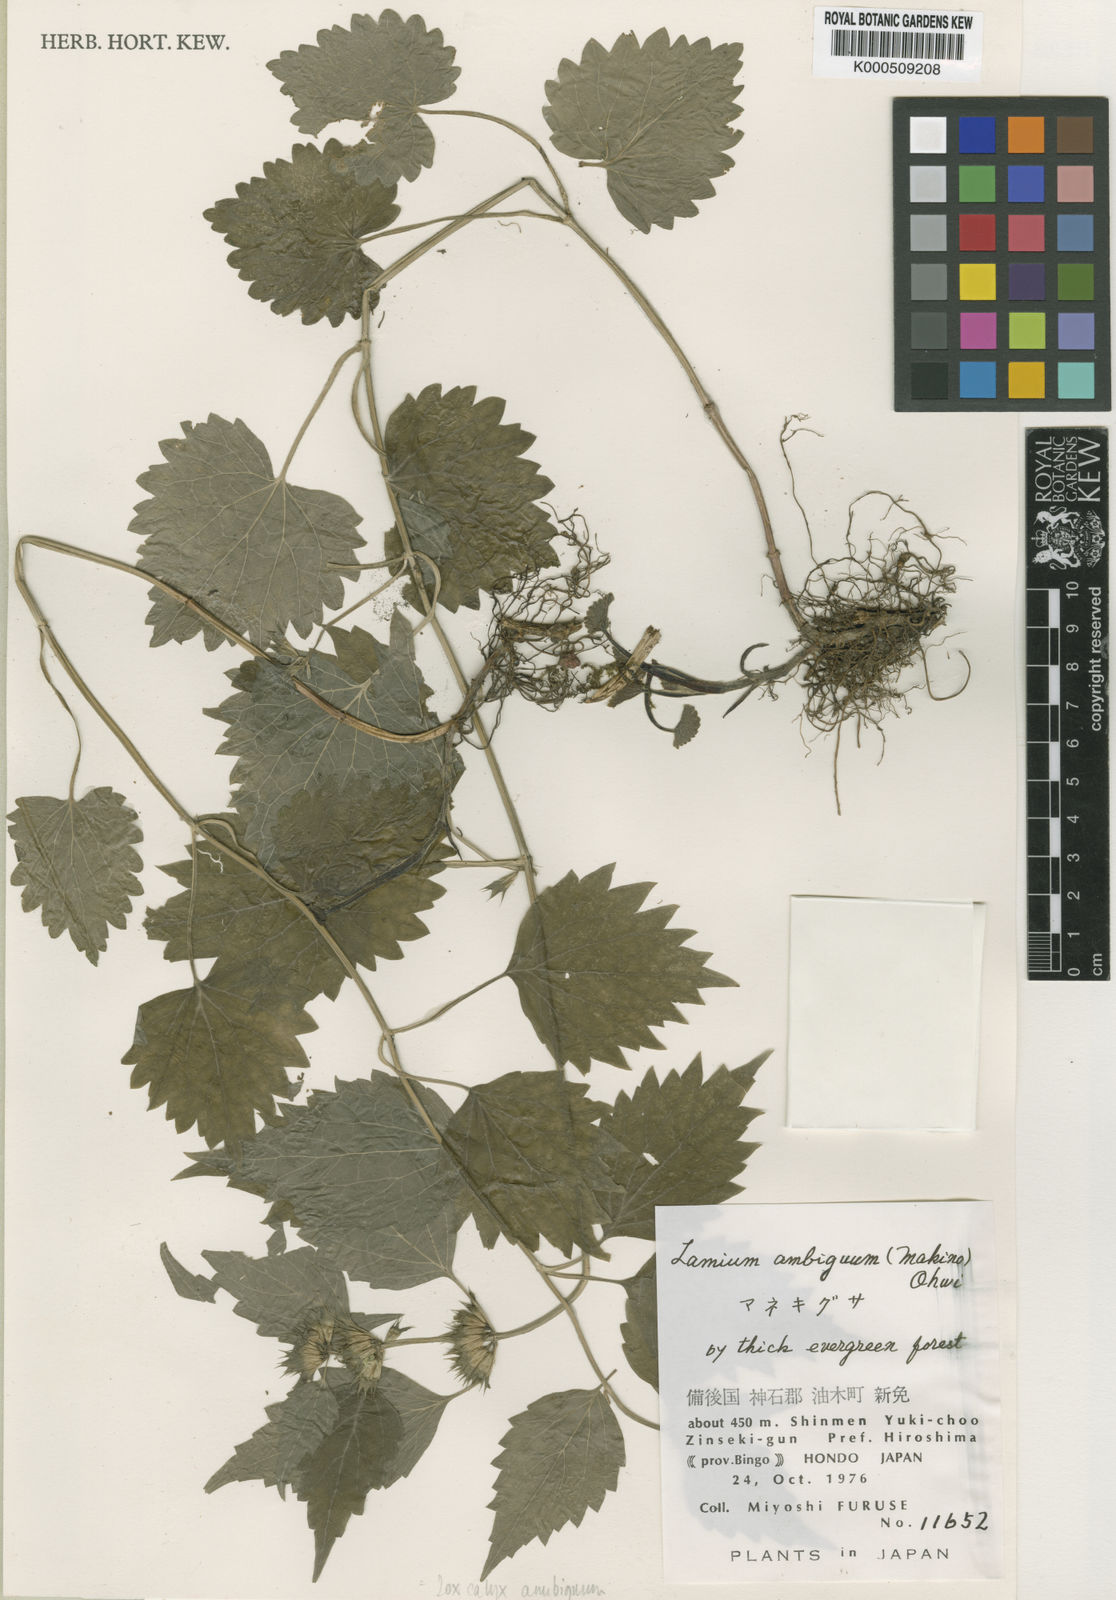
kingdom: Plantae
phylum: Tracheophyta
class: Magnoliopsida
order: Lamiales
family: Lamiaceae
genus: Loxocalyx
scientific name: Loxocalyx ambiguus
